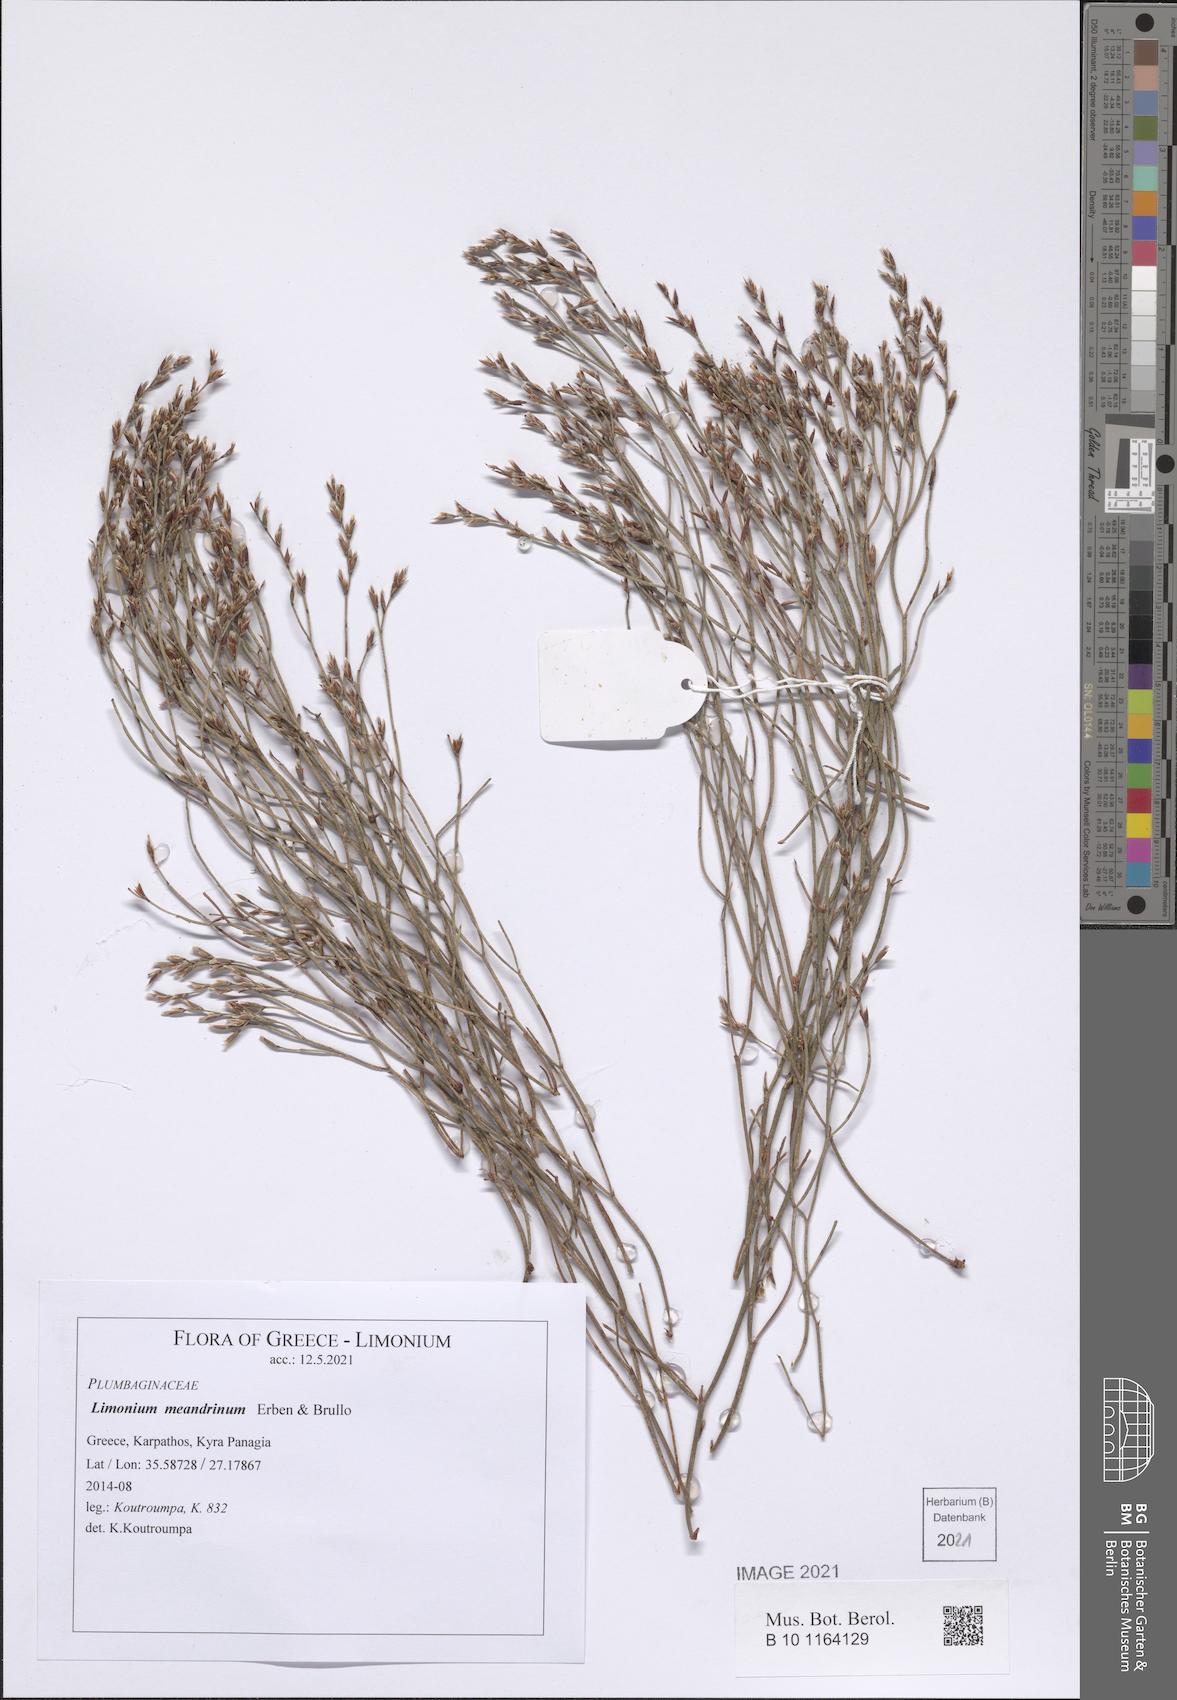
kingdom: Plantae
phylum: Tracheophyta
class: Magnoliopsida
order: Caryophyllales
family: Plumbaginaceae
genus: Limonium
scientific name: Limonium meandrinum
